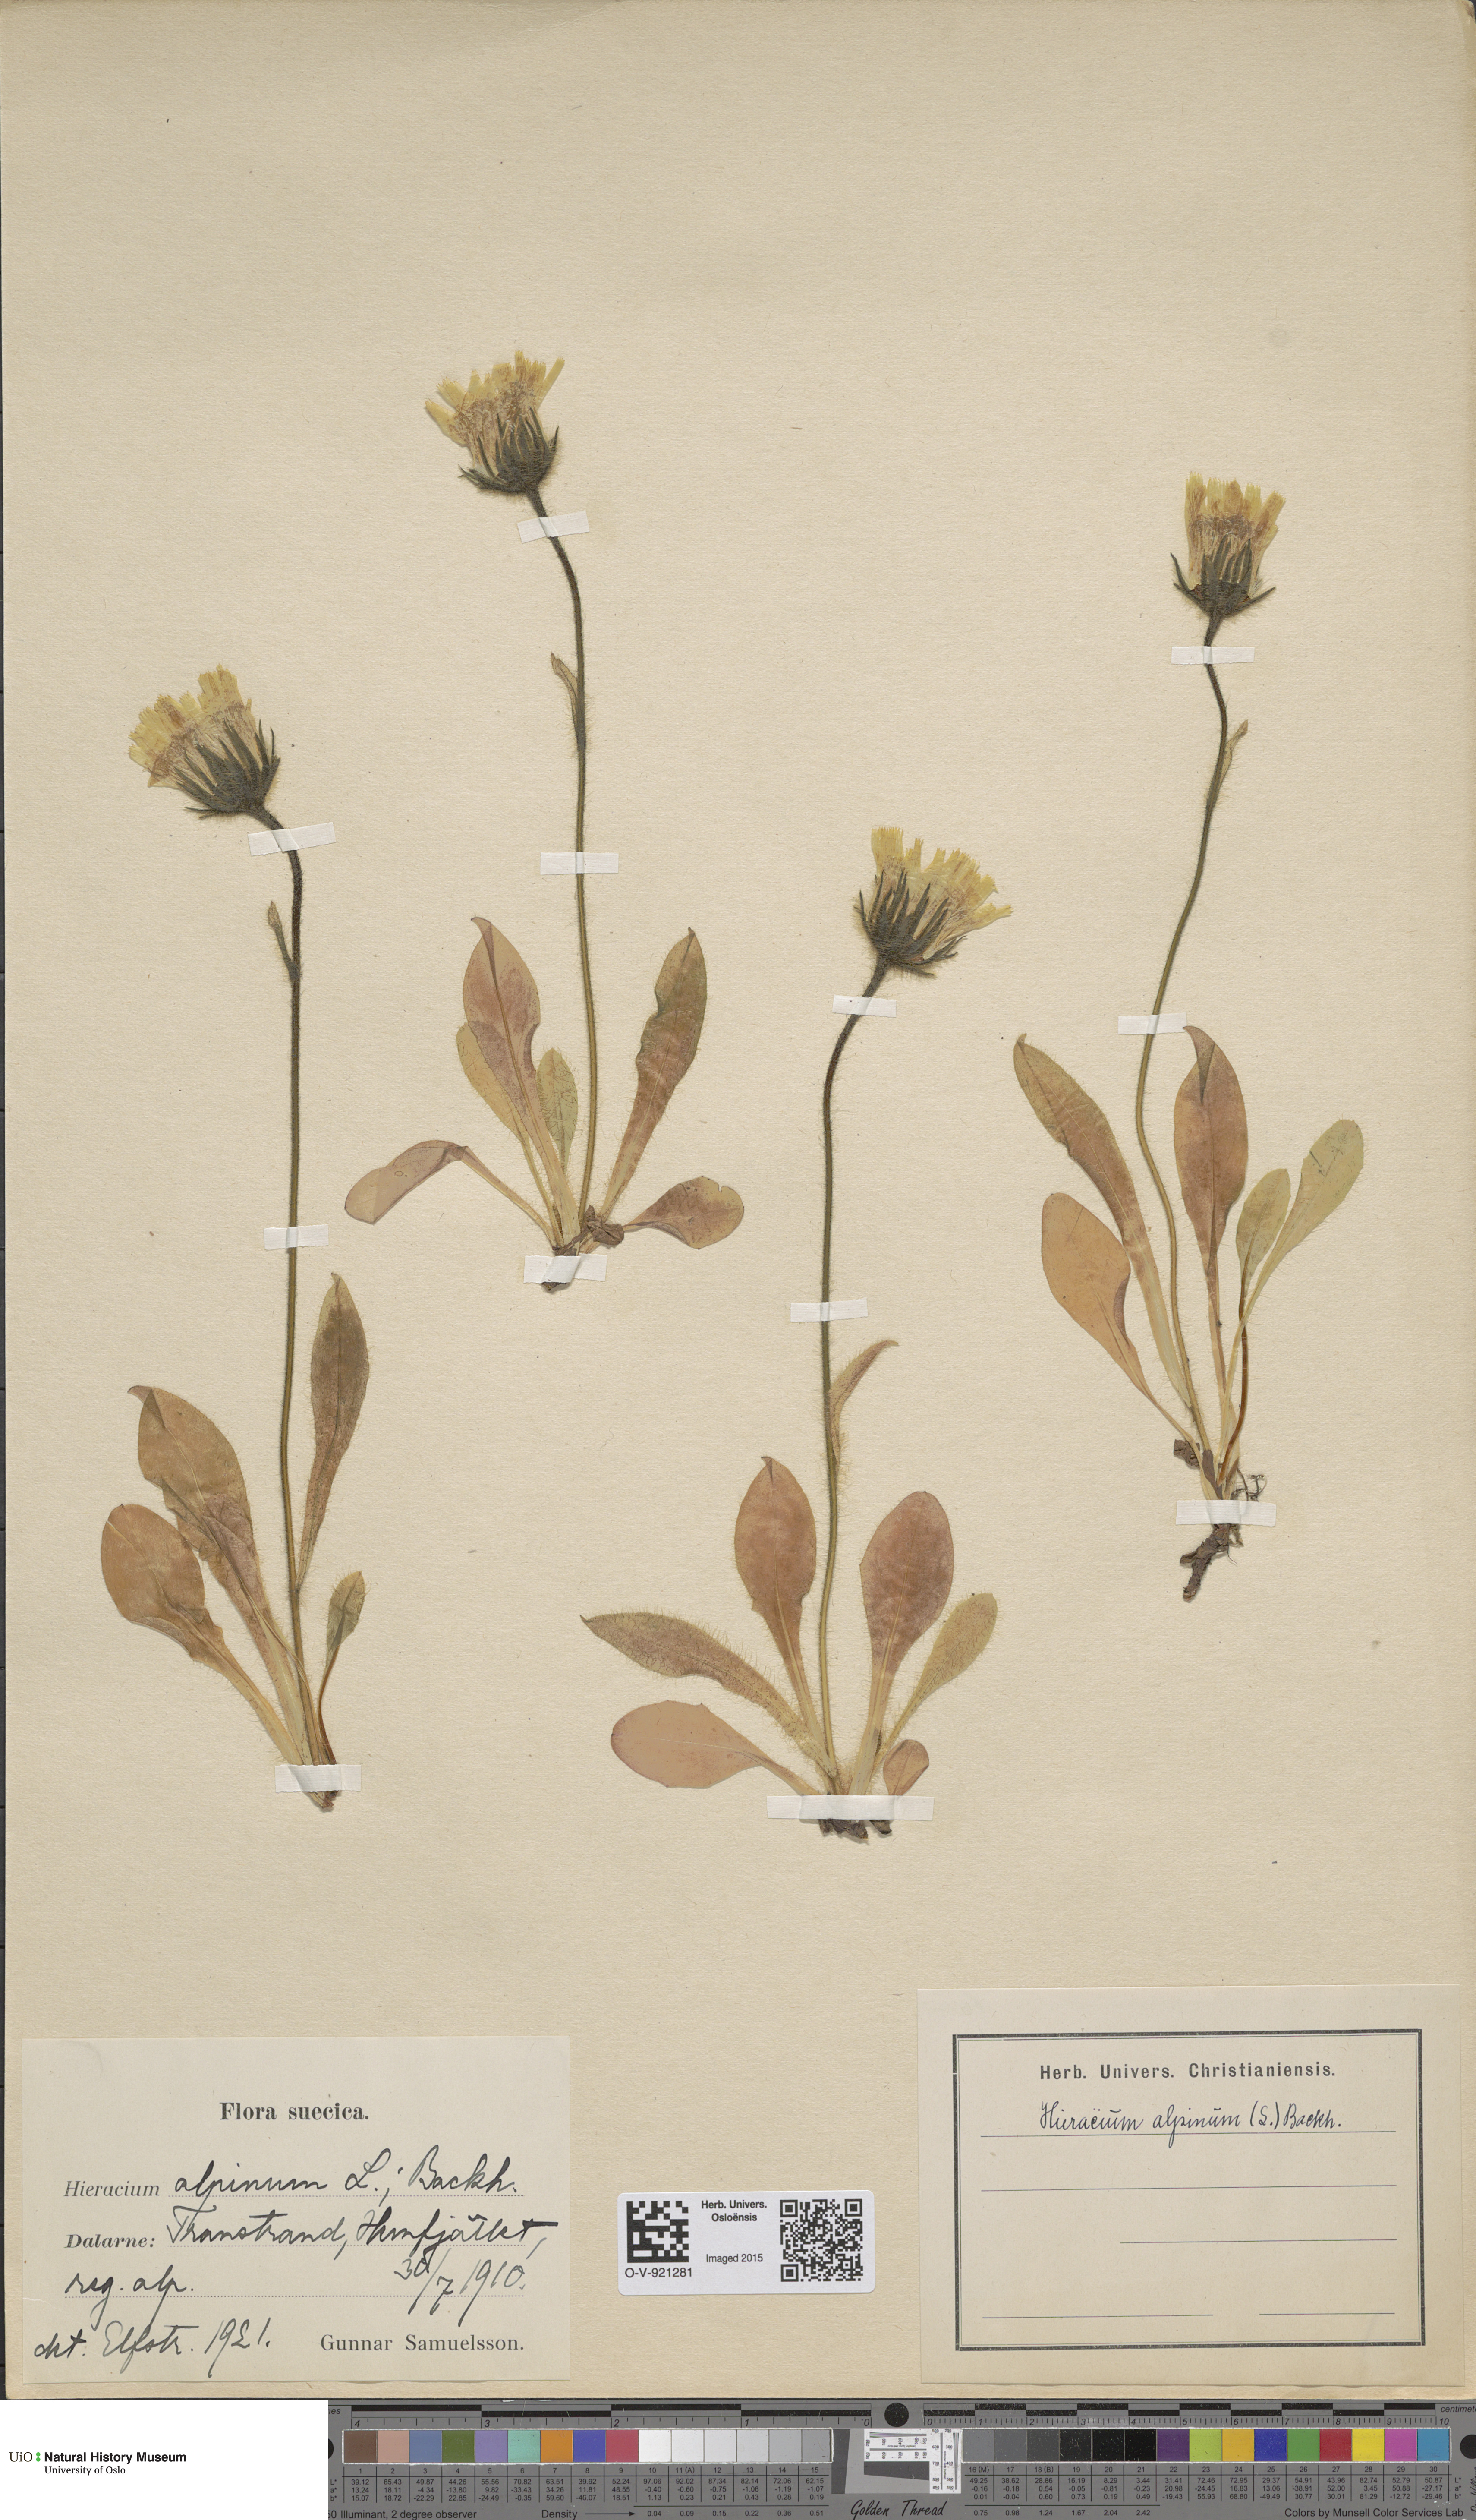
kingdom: Plantae
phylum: Tracheophyta
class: Magnoliopsida
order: Asterales
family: Asteraceae
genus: Hieracium
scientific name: Hieracium alpinum
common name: Alpine hawkweed
